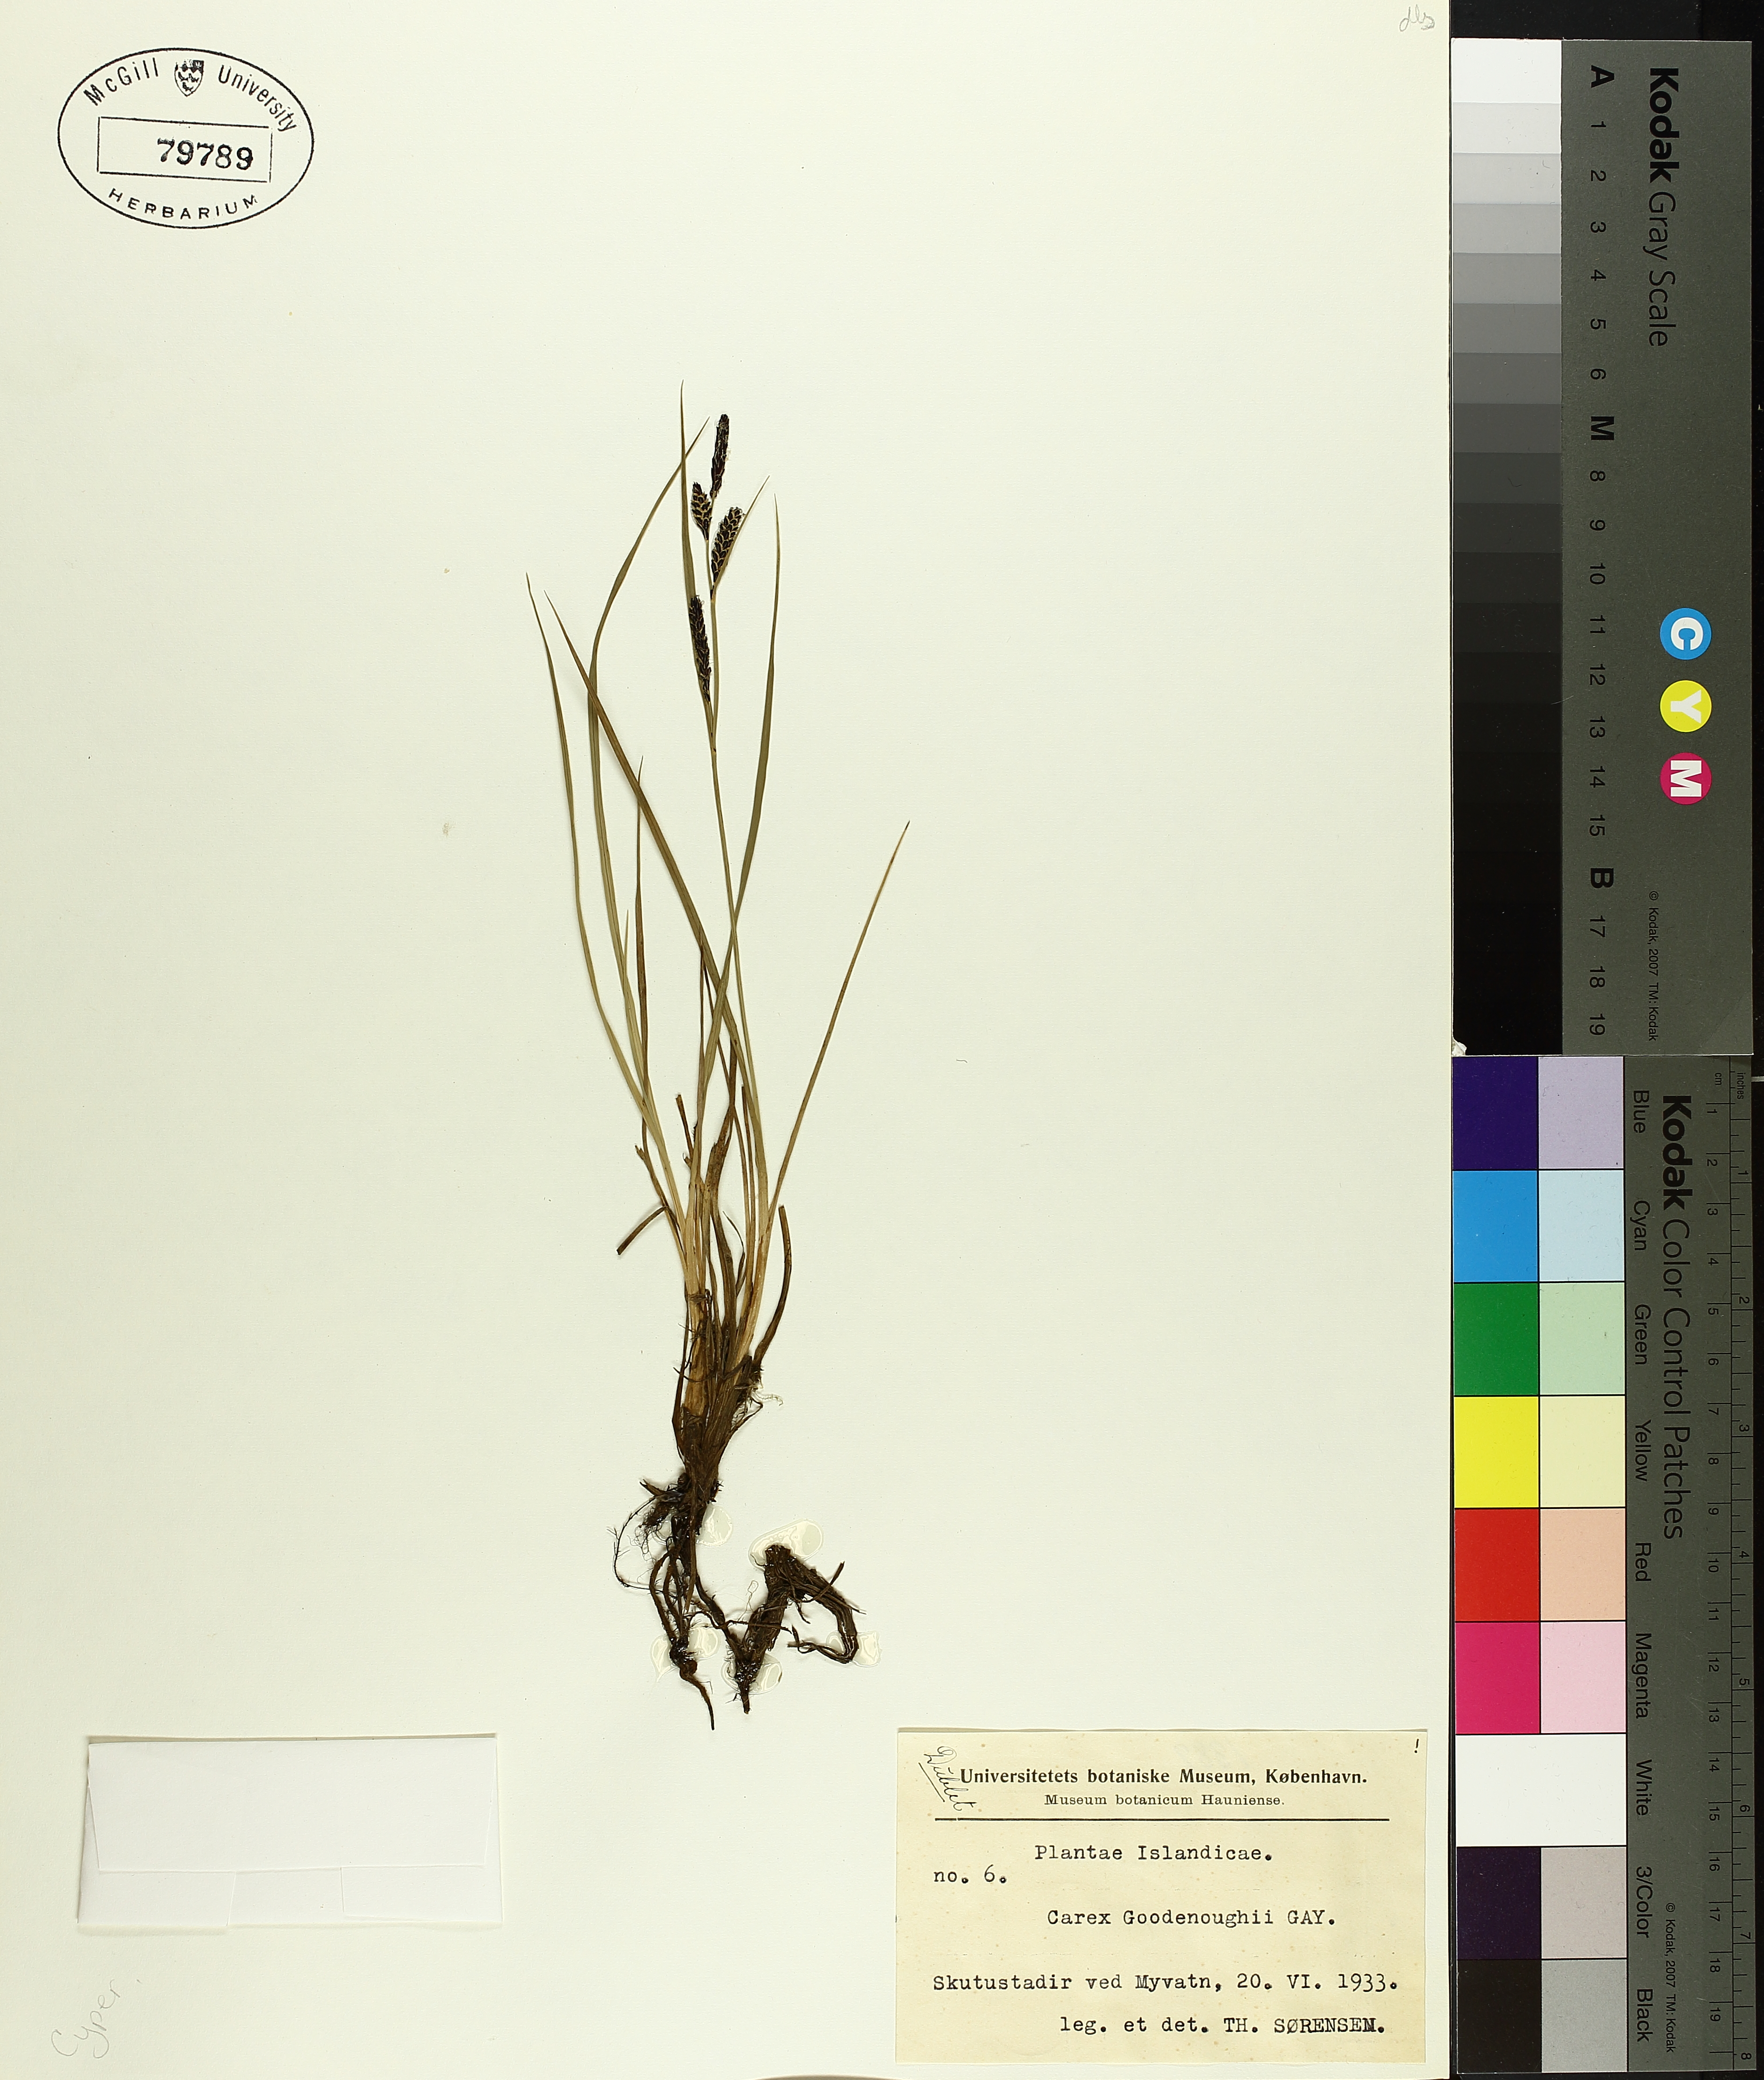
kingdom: Plantae
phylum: Tracheophyta
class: Liliopsida
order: Poales
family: Cyperaceae
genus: Carex
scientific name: Carex nigra
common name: Common sedge
